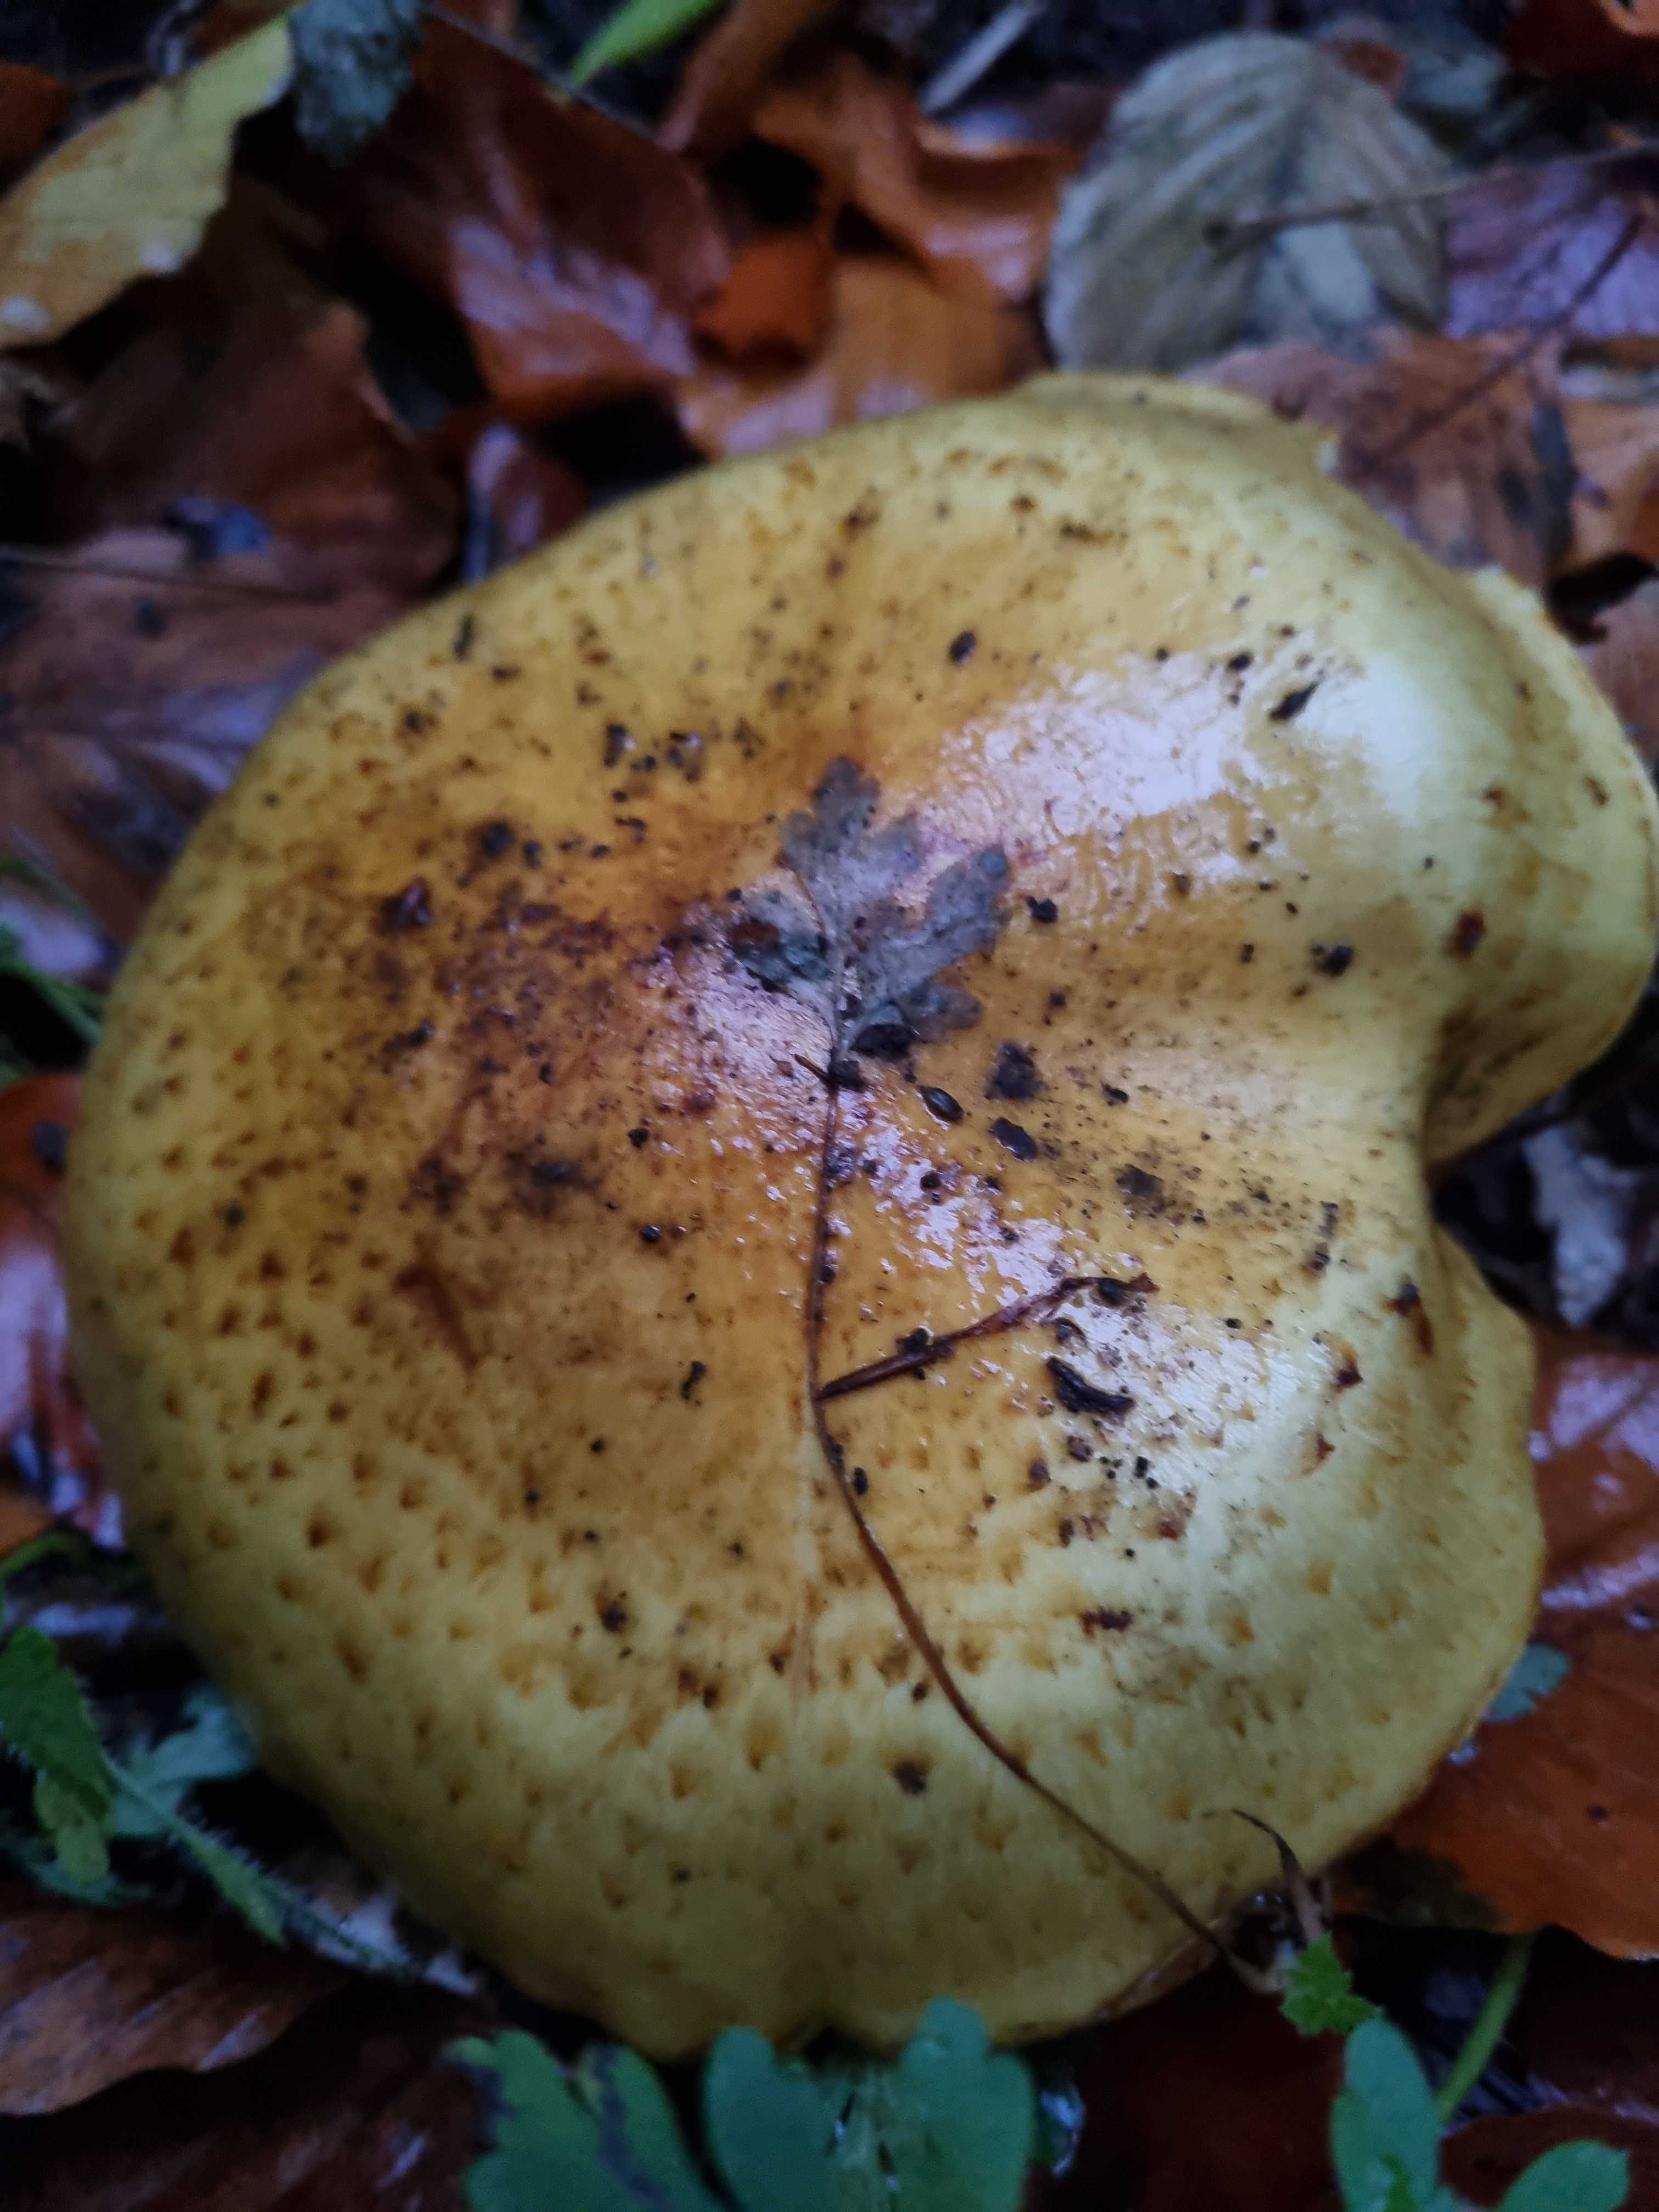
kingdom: Fungi
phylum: Basidiomycota
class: Agaricomycetes
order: Agaricales
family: Strophariaceae
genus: Pholiota
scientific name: Pholiota jahnii
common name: slimet skælhat
